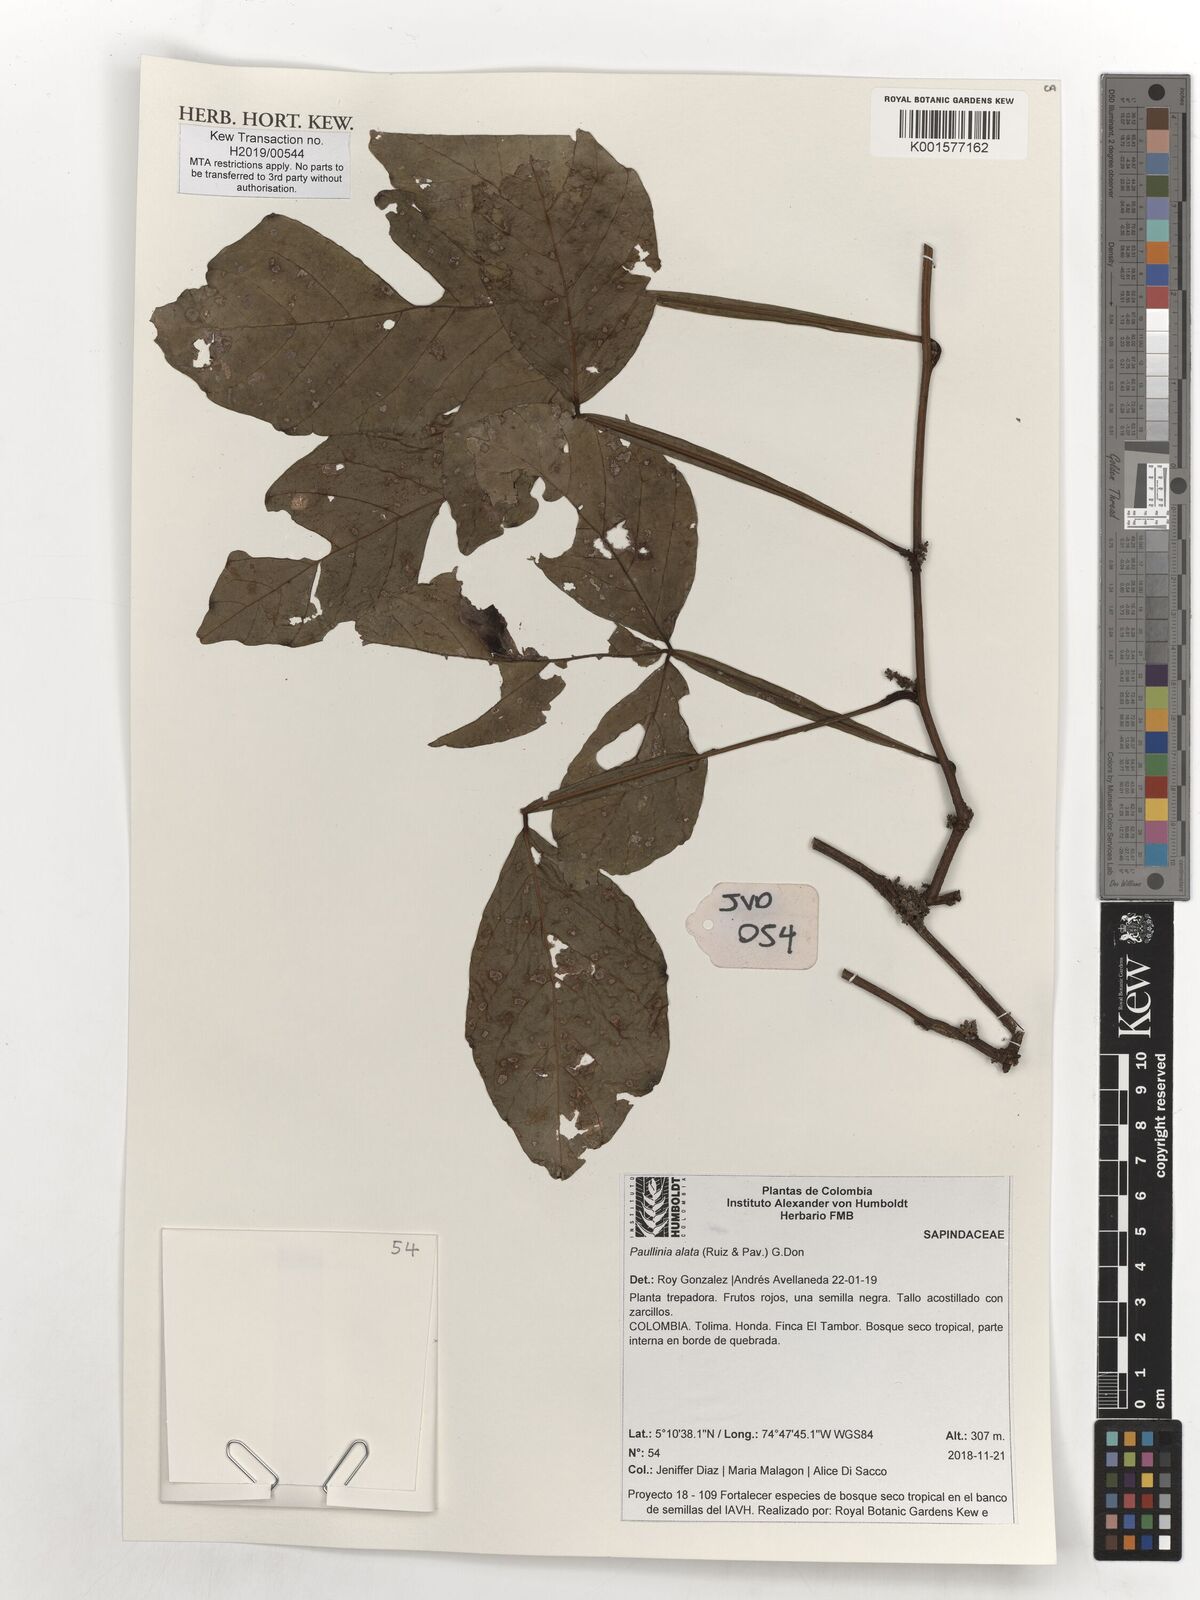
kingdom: Plantae
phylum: Tracheophyta
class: Magnoliopsida
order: Sapindales
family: Sapindaceae
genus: Paullinia
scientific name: Paullinia alata
